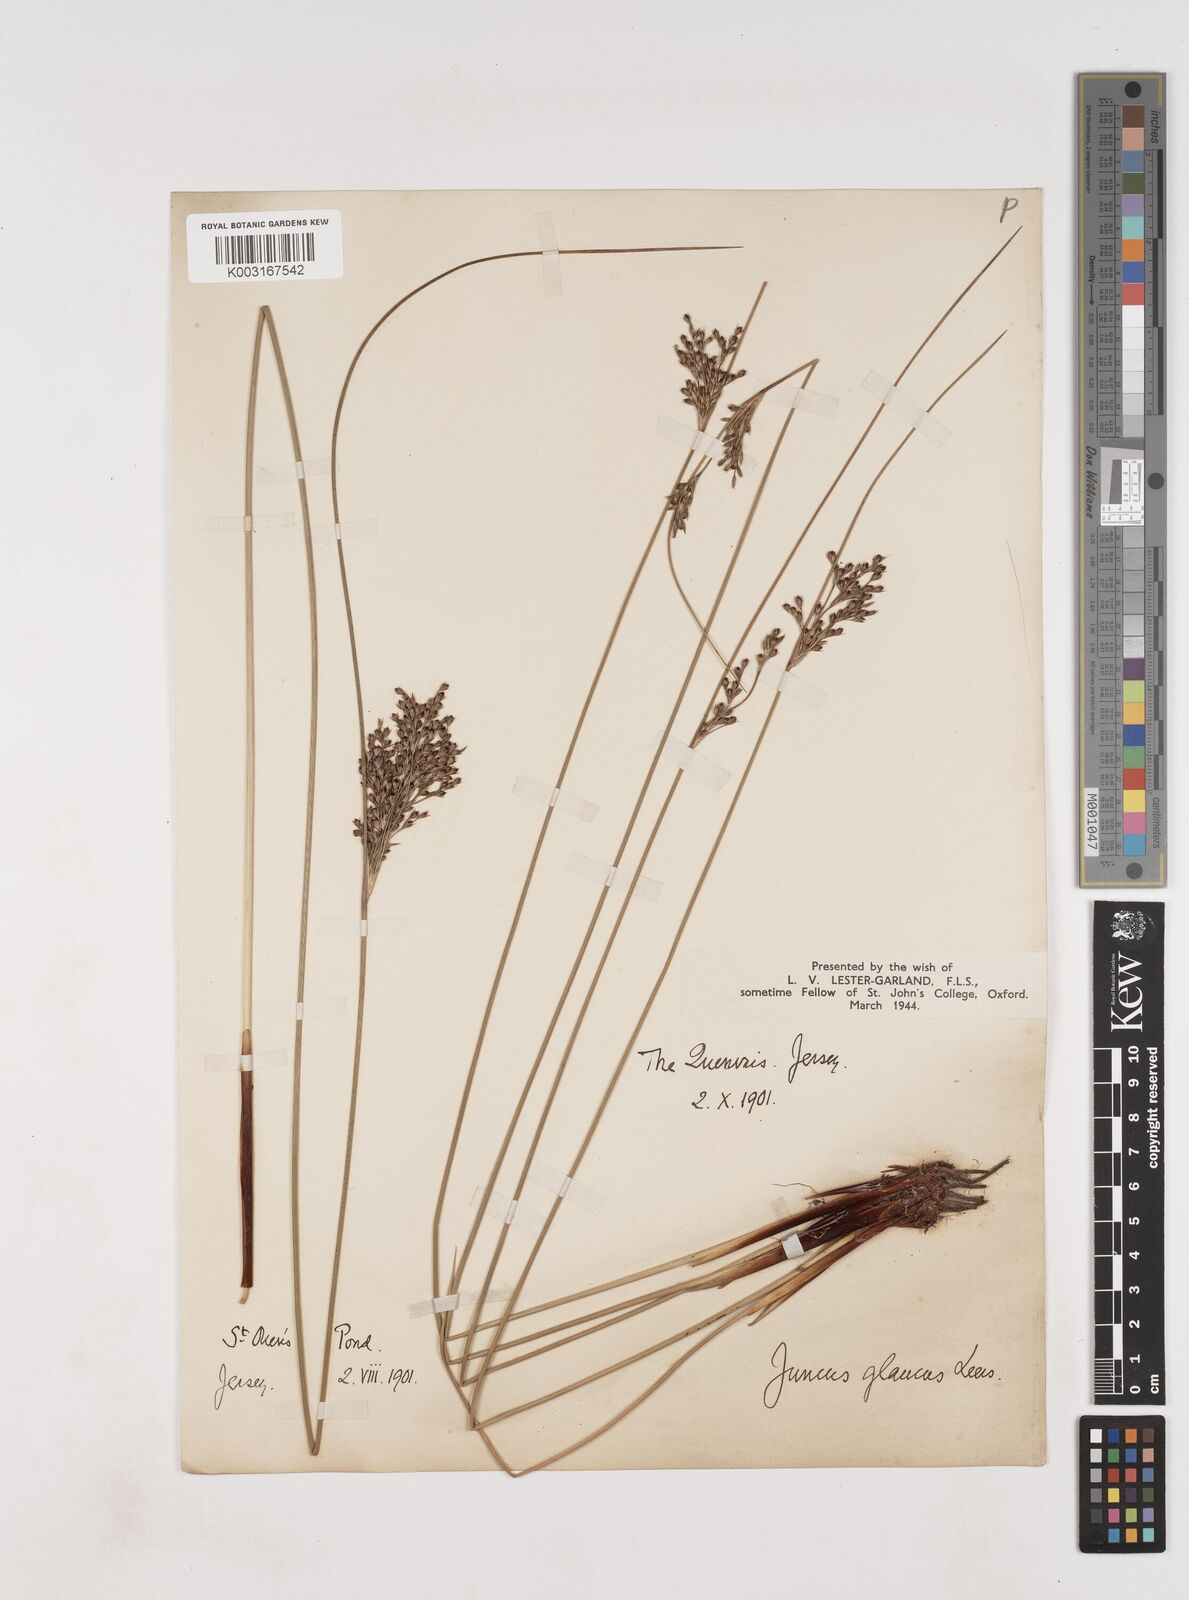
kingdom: Plantae
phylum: Tracheophyta
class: Liliopsida
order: Poales
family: Juncaceae
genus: Juncus
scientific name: Juncus inflexus
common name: Hard rush
